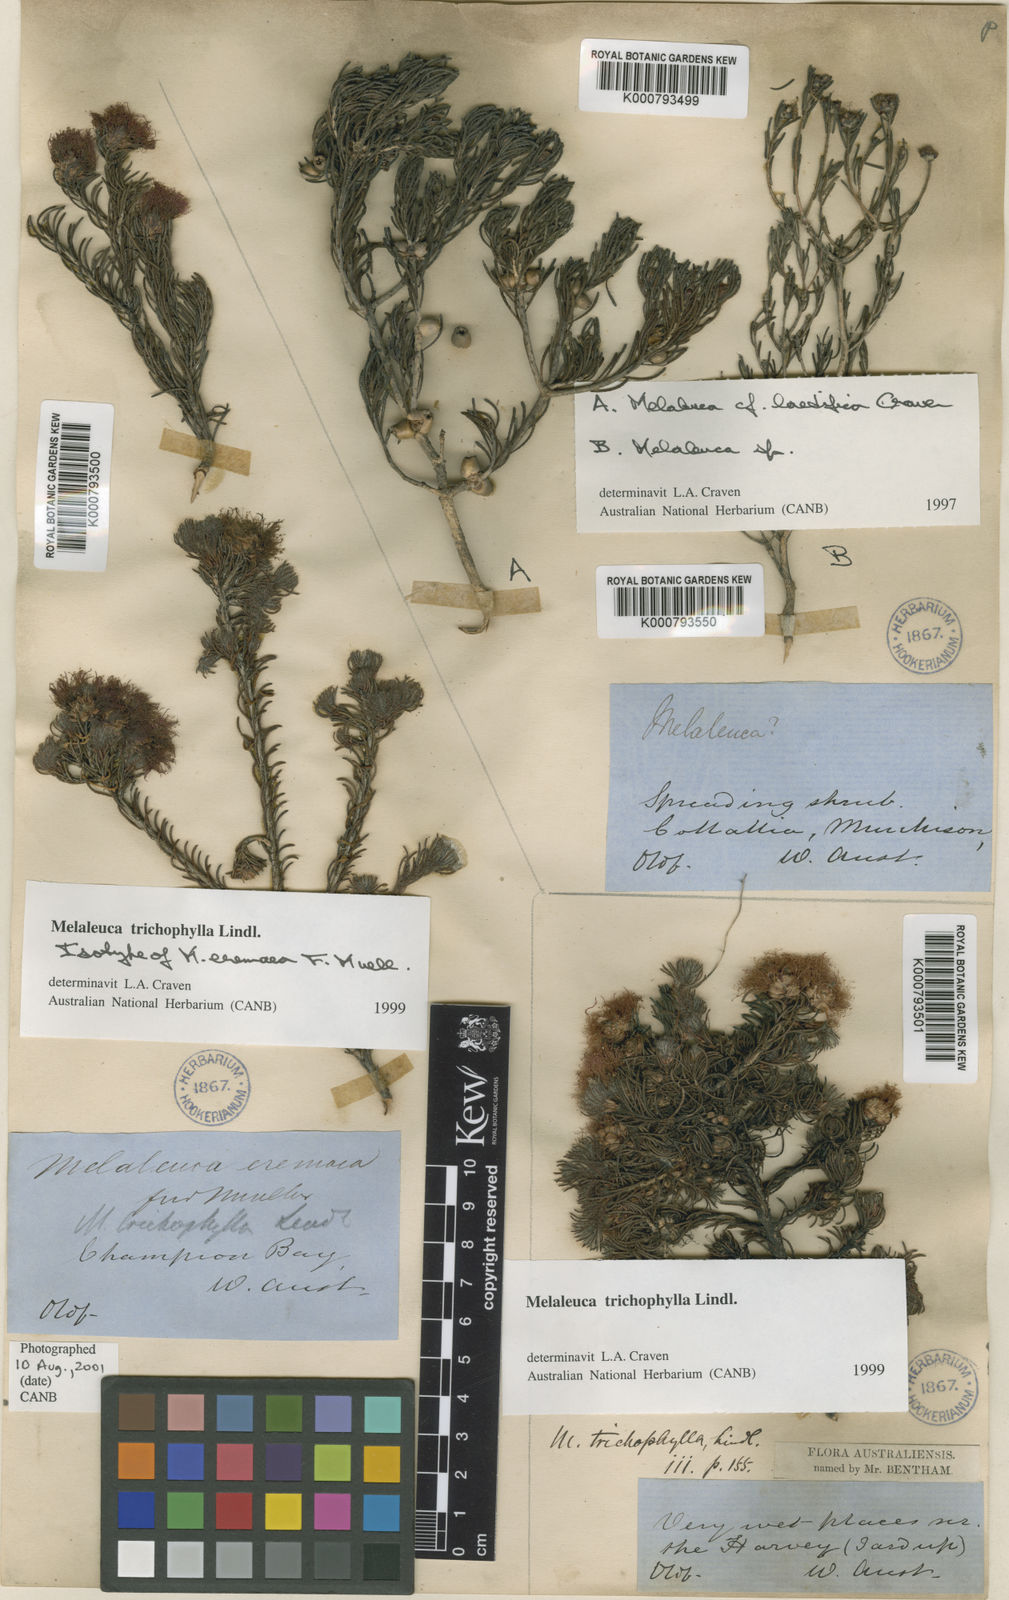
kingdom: Plantae
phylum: Tracheophyta
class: Magnoliopsida
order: Myrtales
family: Myrtaceae
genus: Melaleuca
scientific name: Melaleuca trichophylla
